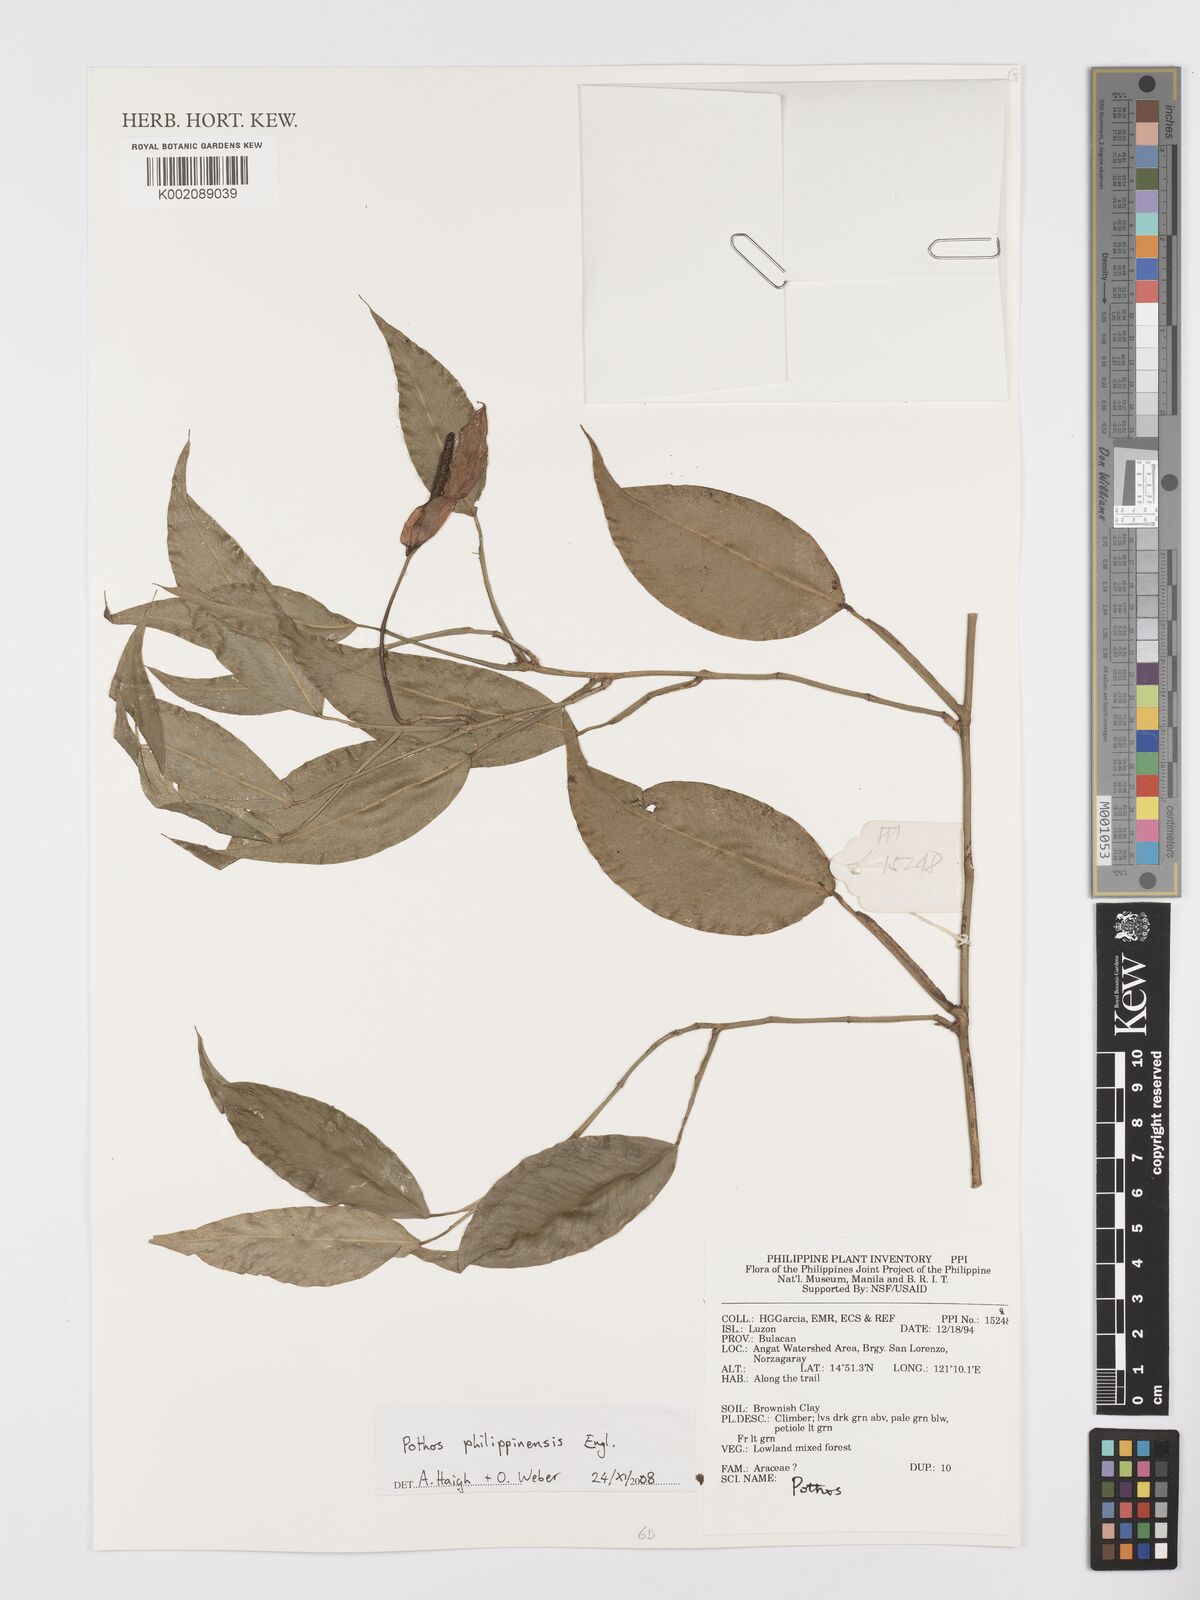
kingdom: Plantae
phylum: Tracheophyta
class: Liliopsida
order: Alismatales
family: Araceae
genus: Pothos
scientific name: Pothos philippinensis
